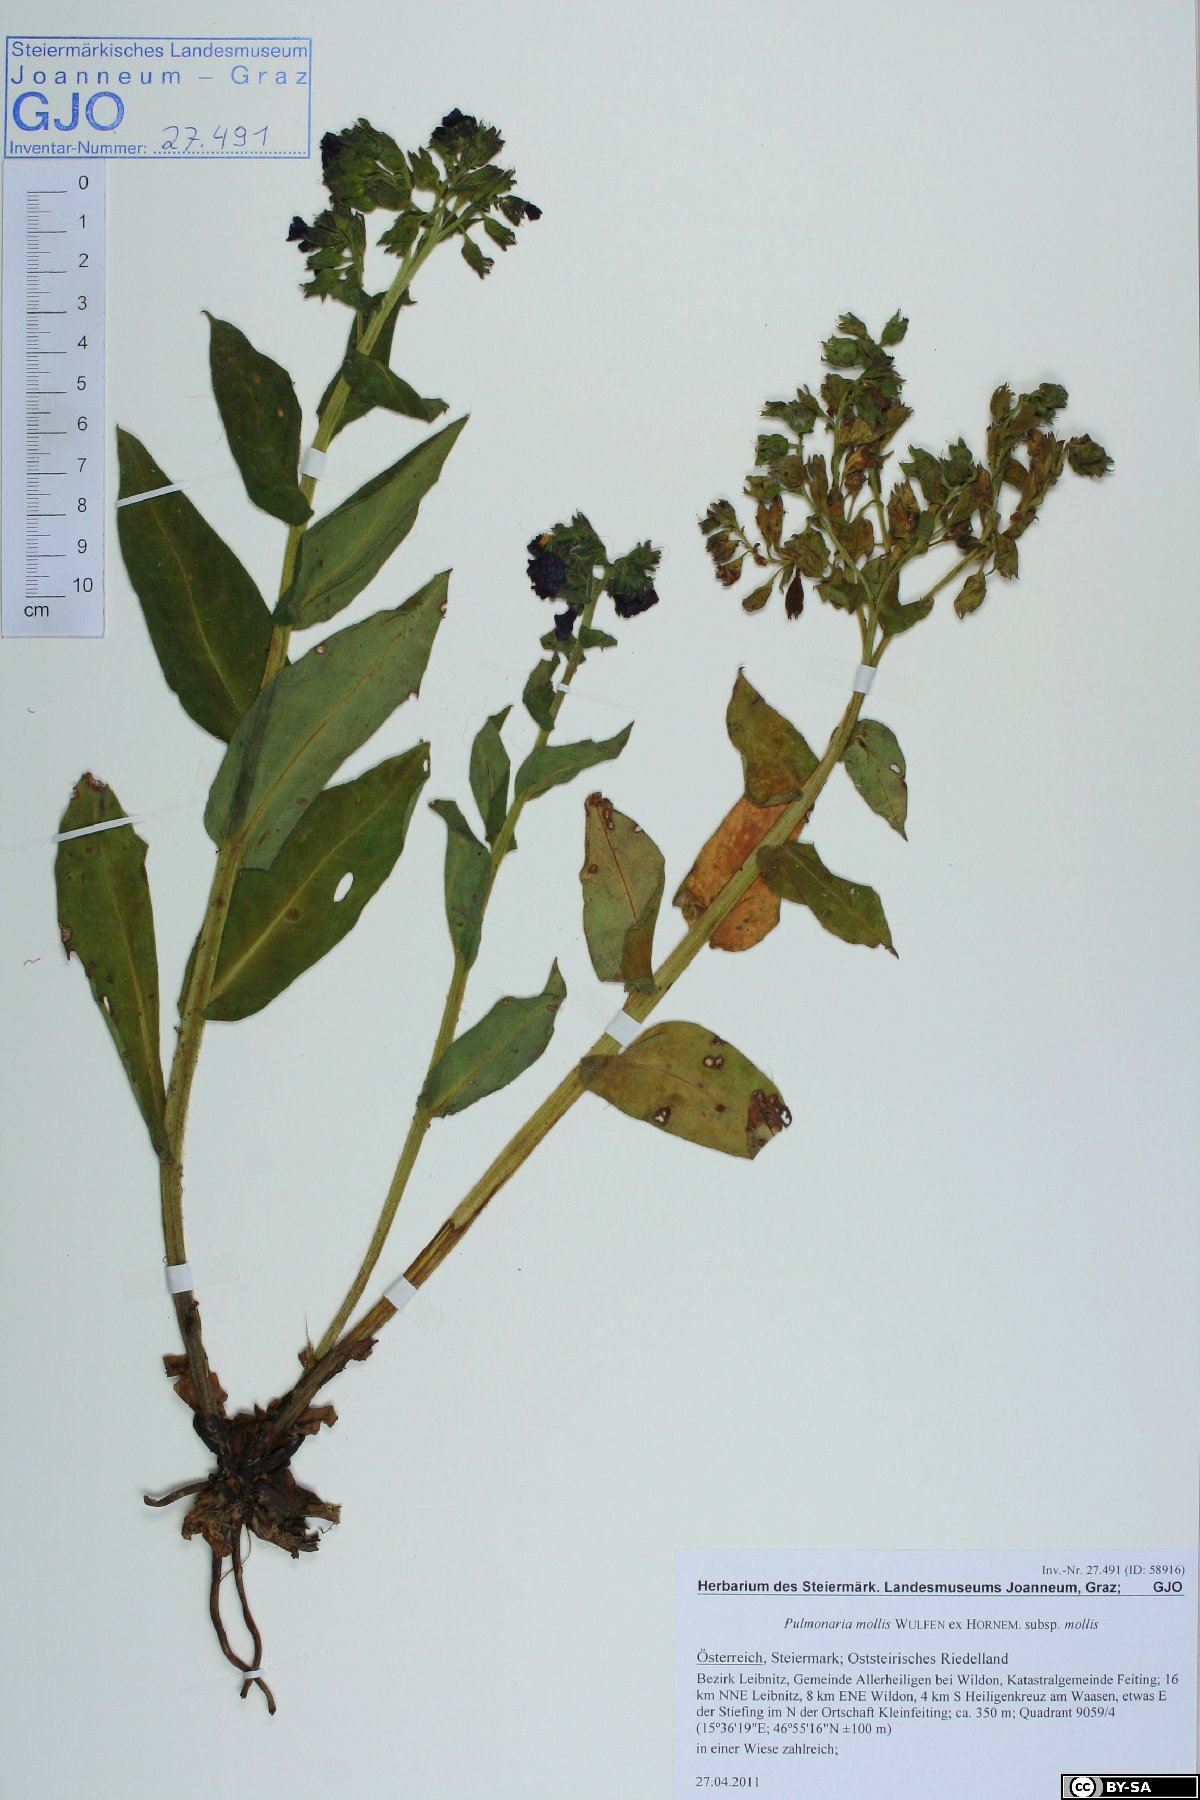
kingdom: Plantae
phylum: Tracheophyta
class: Magnoliopsida
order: Boraginales
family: Boraginaceae
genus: Pulmonaria
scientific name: Pulmonaria mollis
